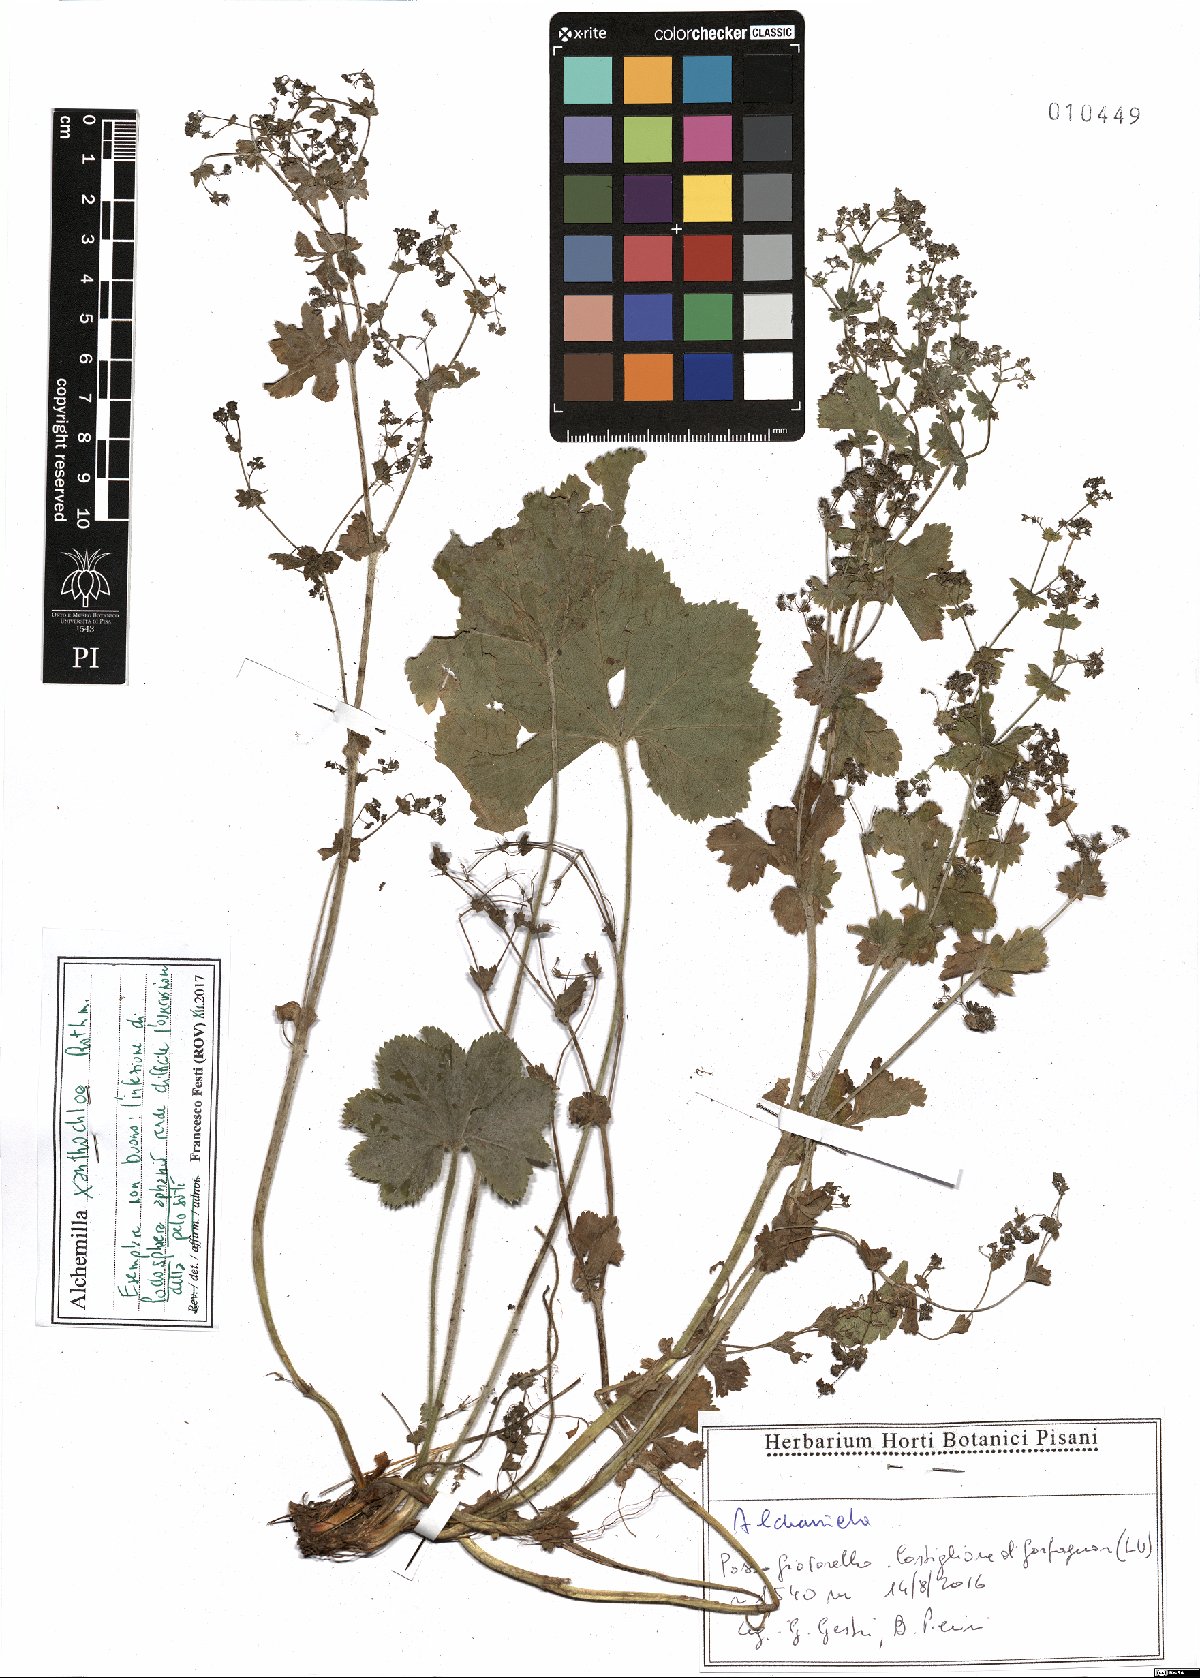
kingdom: Plantae
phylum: Tracheophyta
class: Magnoliopsida
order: Rosales
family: Rosaceae
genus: Alchemilla
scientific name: Alchemilla xanthochlora
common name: Intermediate lady's-mantle
